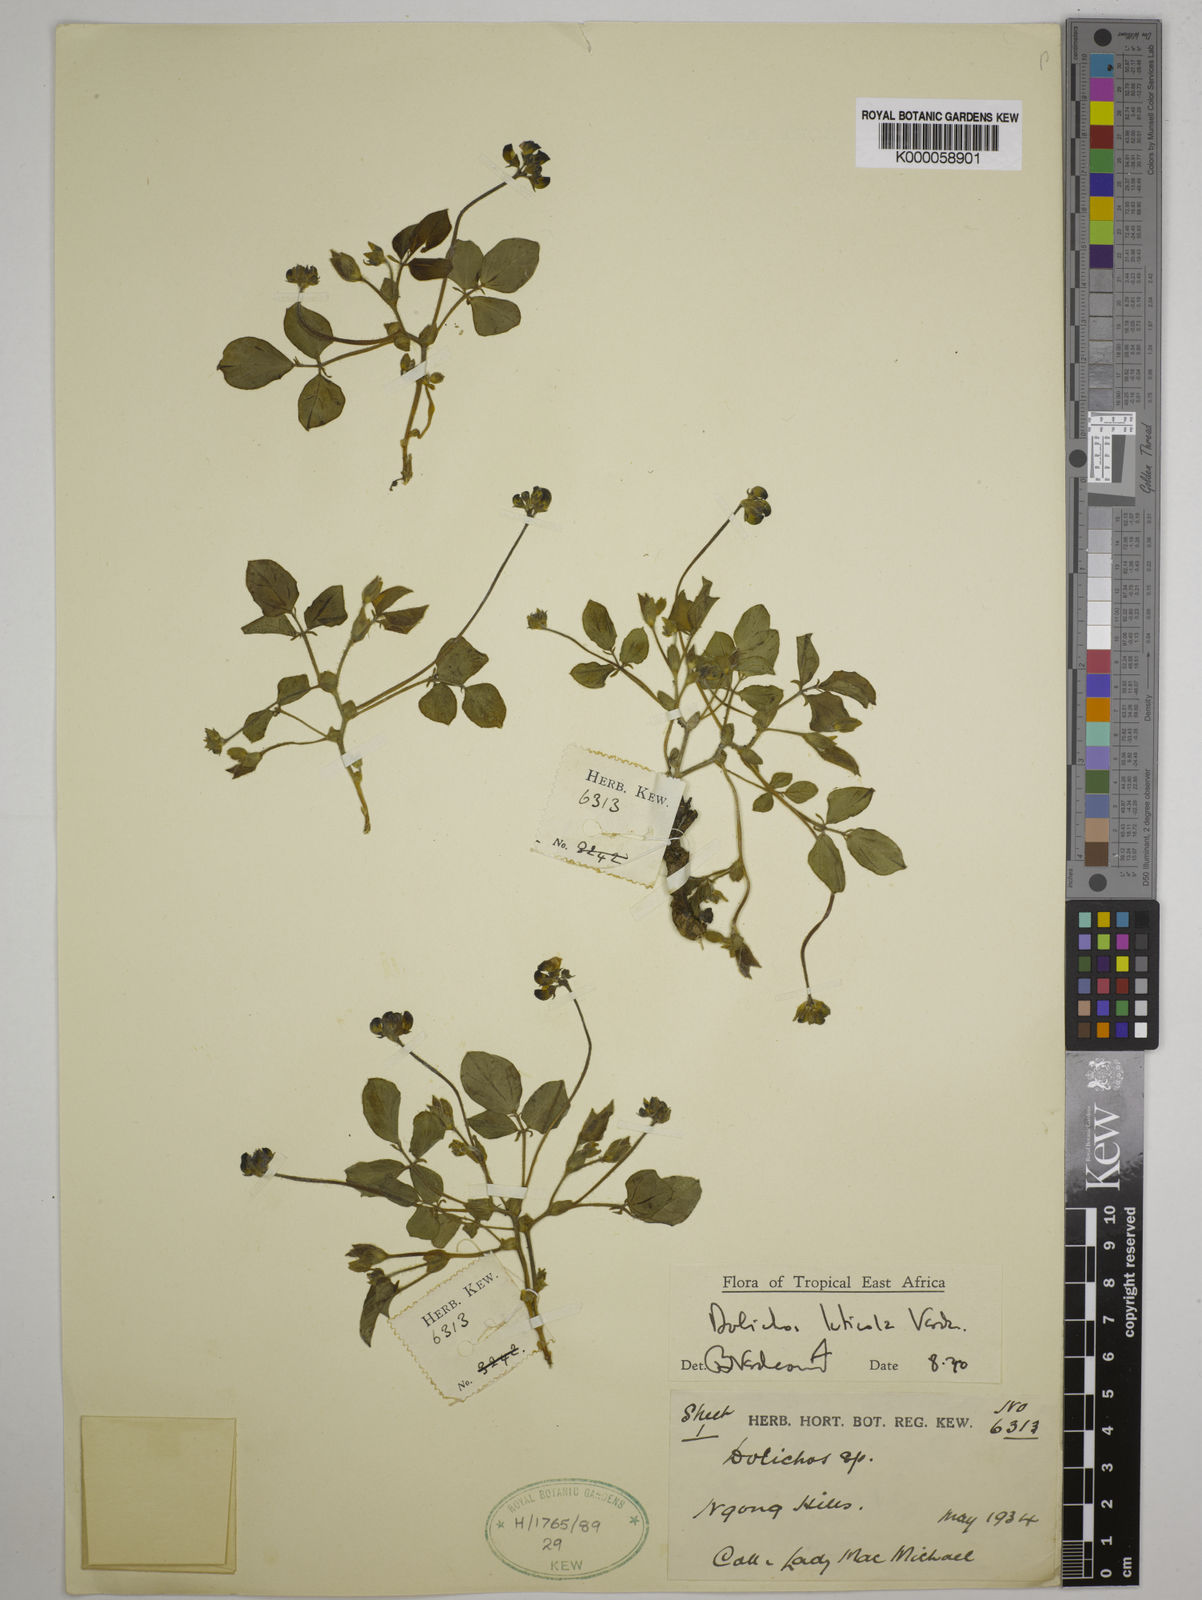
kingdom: Plantae
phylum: Tracheophyta
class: Magnoliopsida
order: Fabales
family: Fabaceae
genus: Dolichos
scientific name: Dolichos luticola
